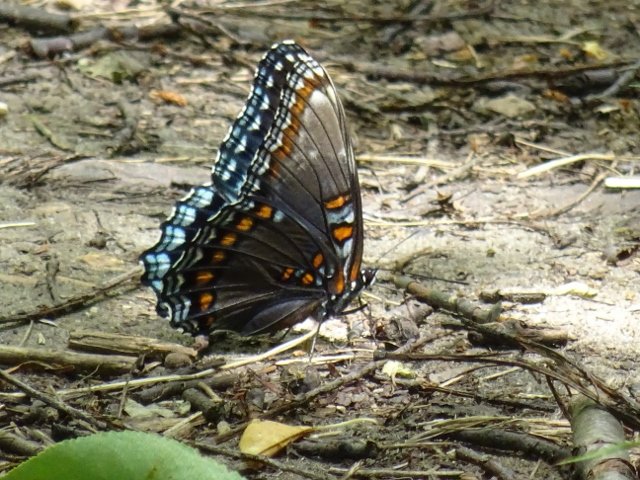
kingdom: Animalia
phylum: Arthropoda
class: Insecta
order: Lepidoptera
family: Nymphalidae
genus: Limenitis
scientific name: Limenitis astyanax
